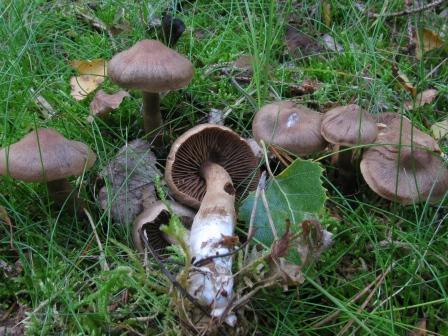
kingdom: Fungi
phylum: Basidiomycota
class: Agaricomycetes
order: Agaricales
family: Cortinariaceae
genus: Cortinarius
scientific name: Cortinarius raphanoides
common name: ræddike-slørhat
